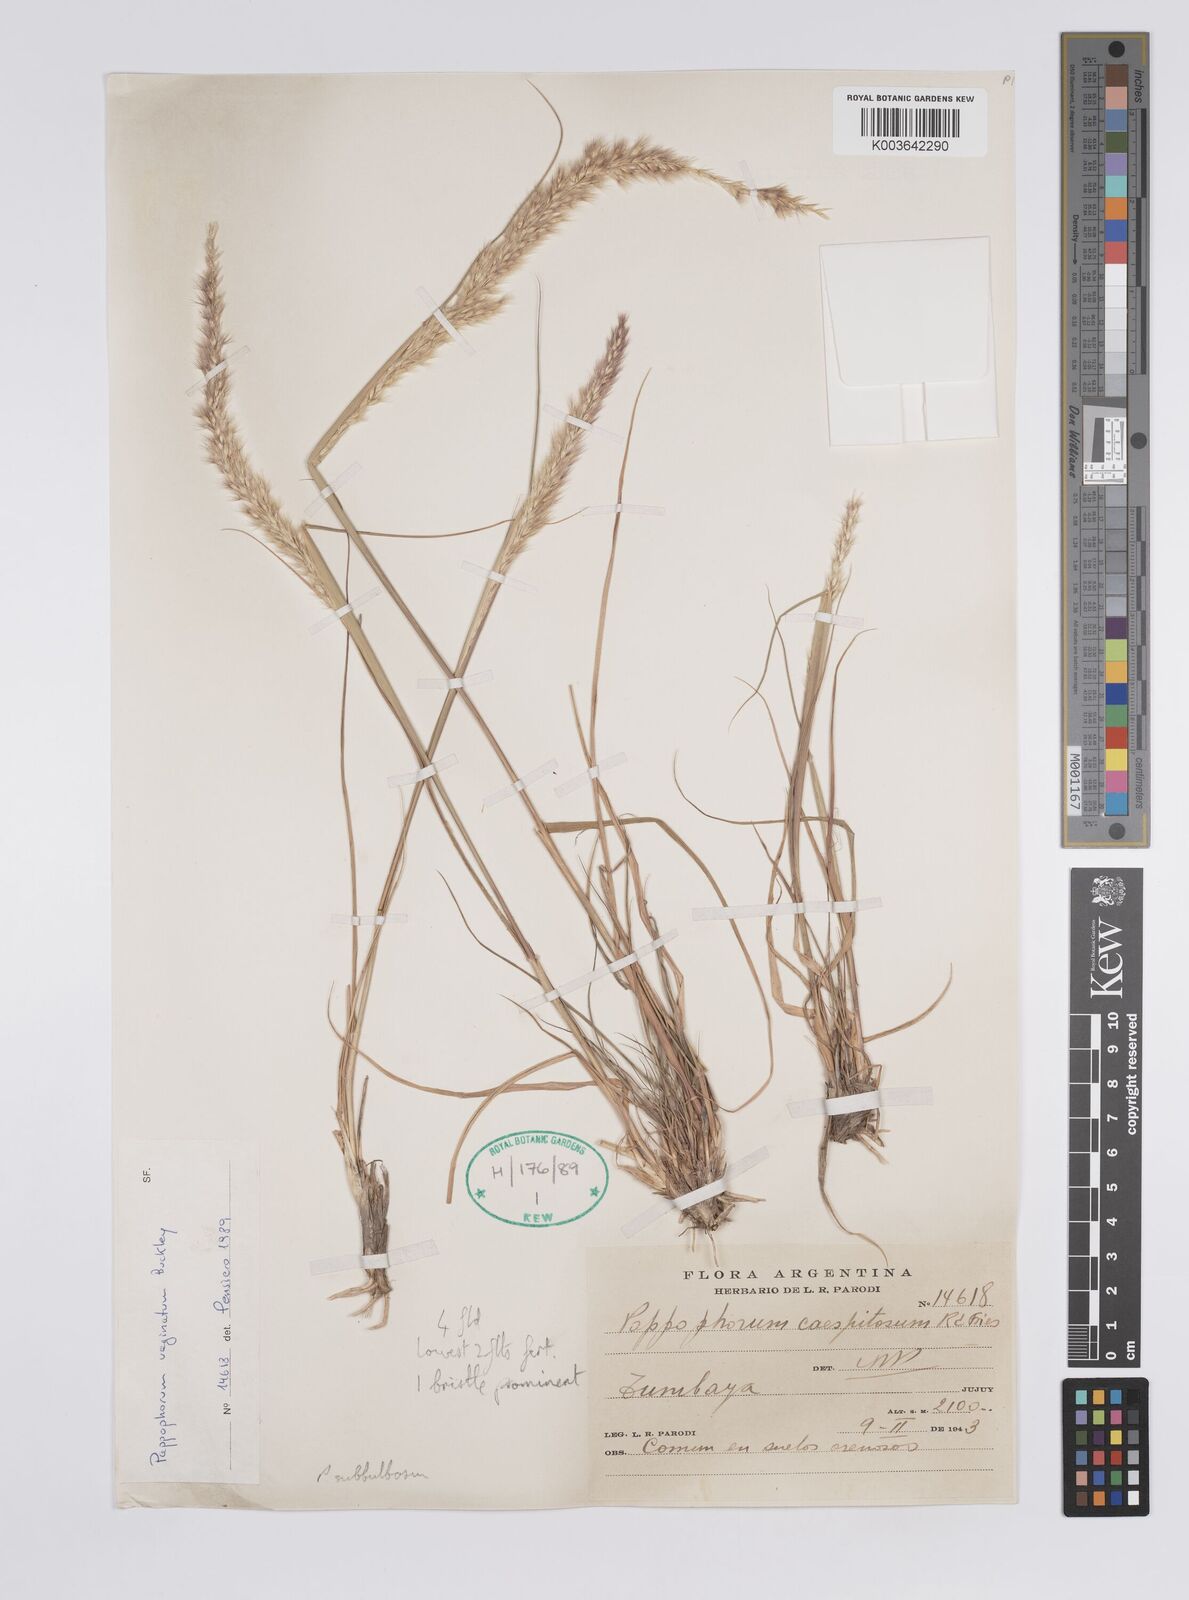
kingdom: Plantae
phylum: Tracheophyta
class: Liliopsida
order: Poales
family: Poaceae
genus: Pappophorum
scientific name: Pappophorum mucronulatum
